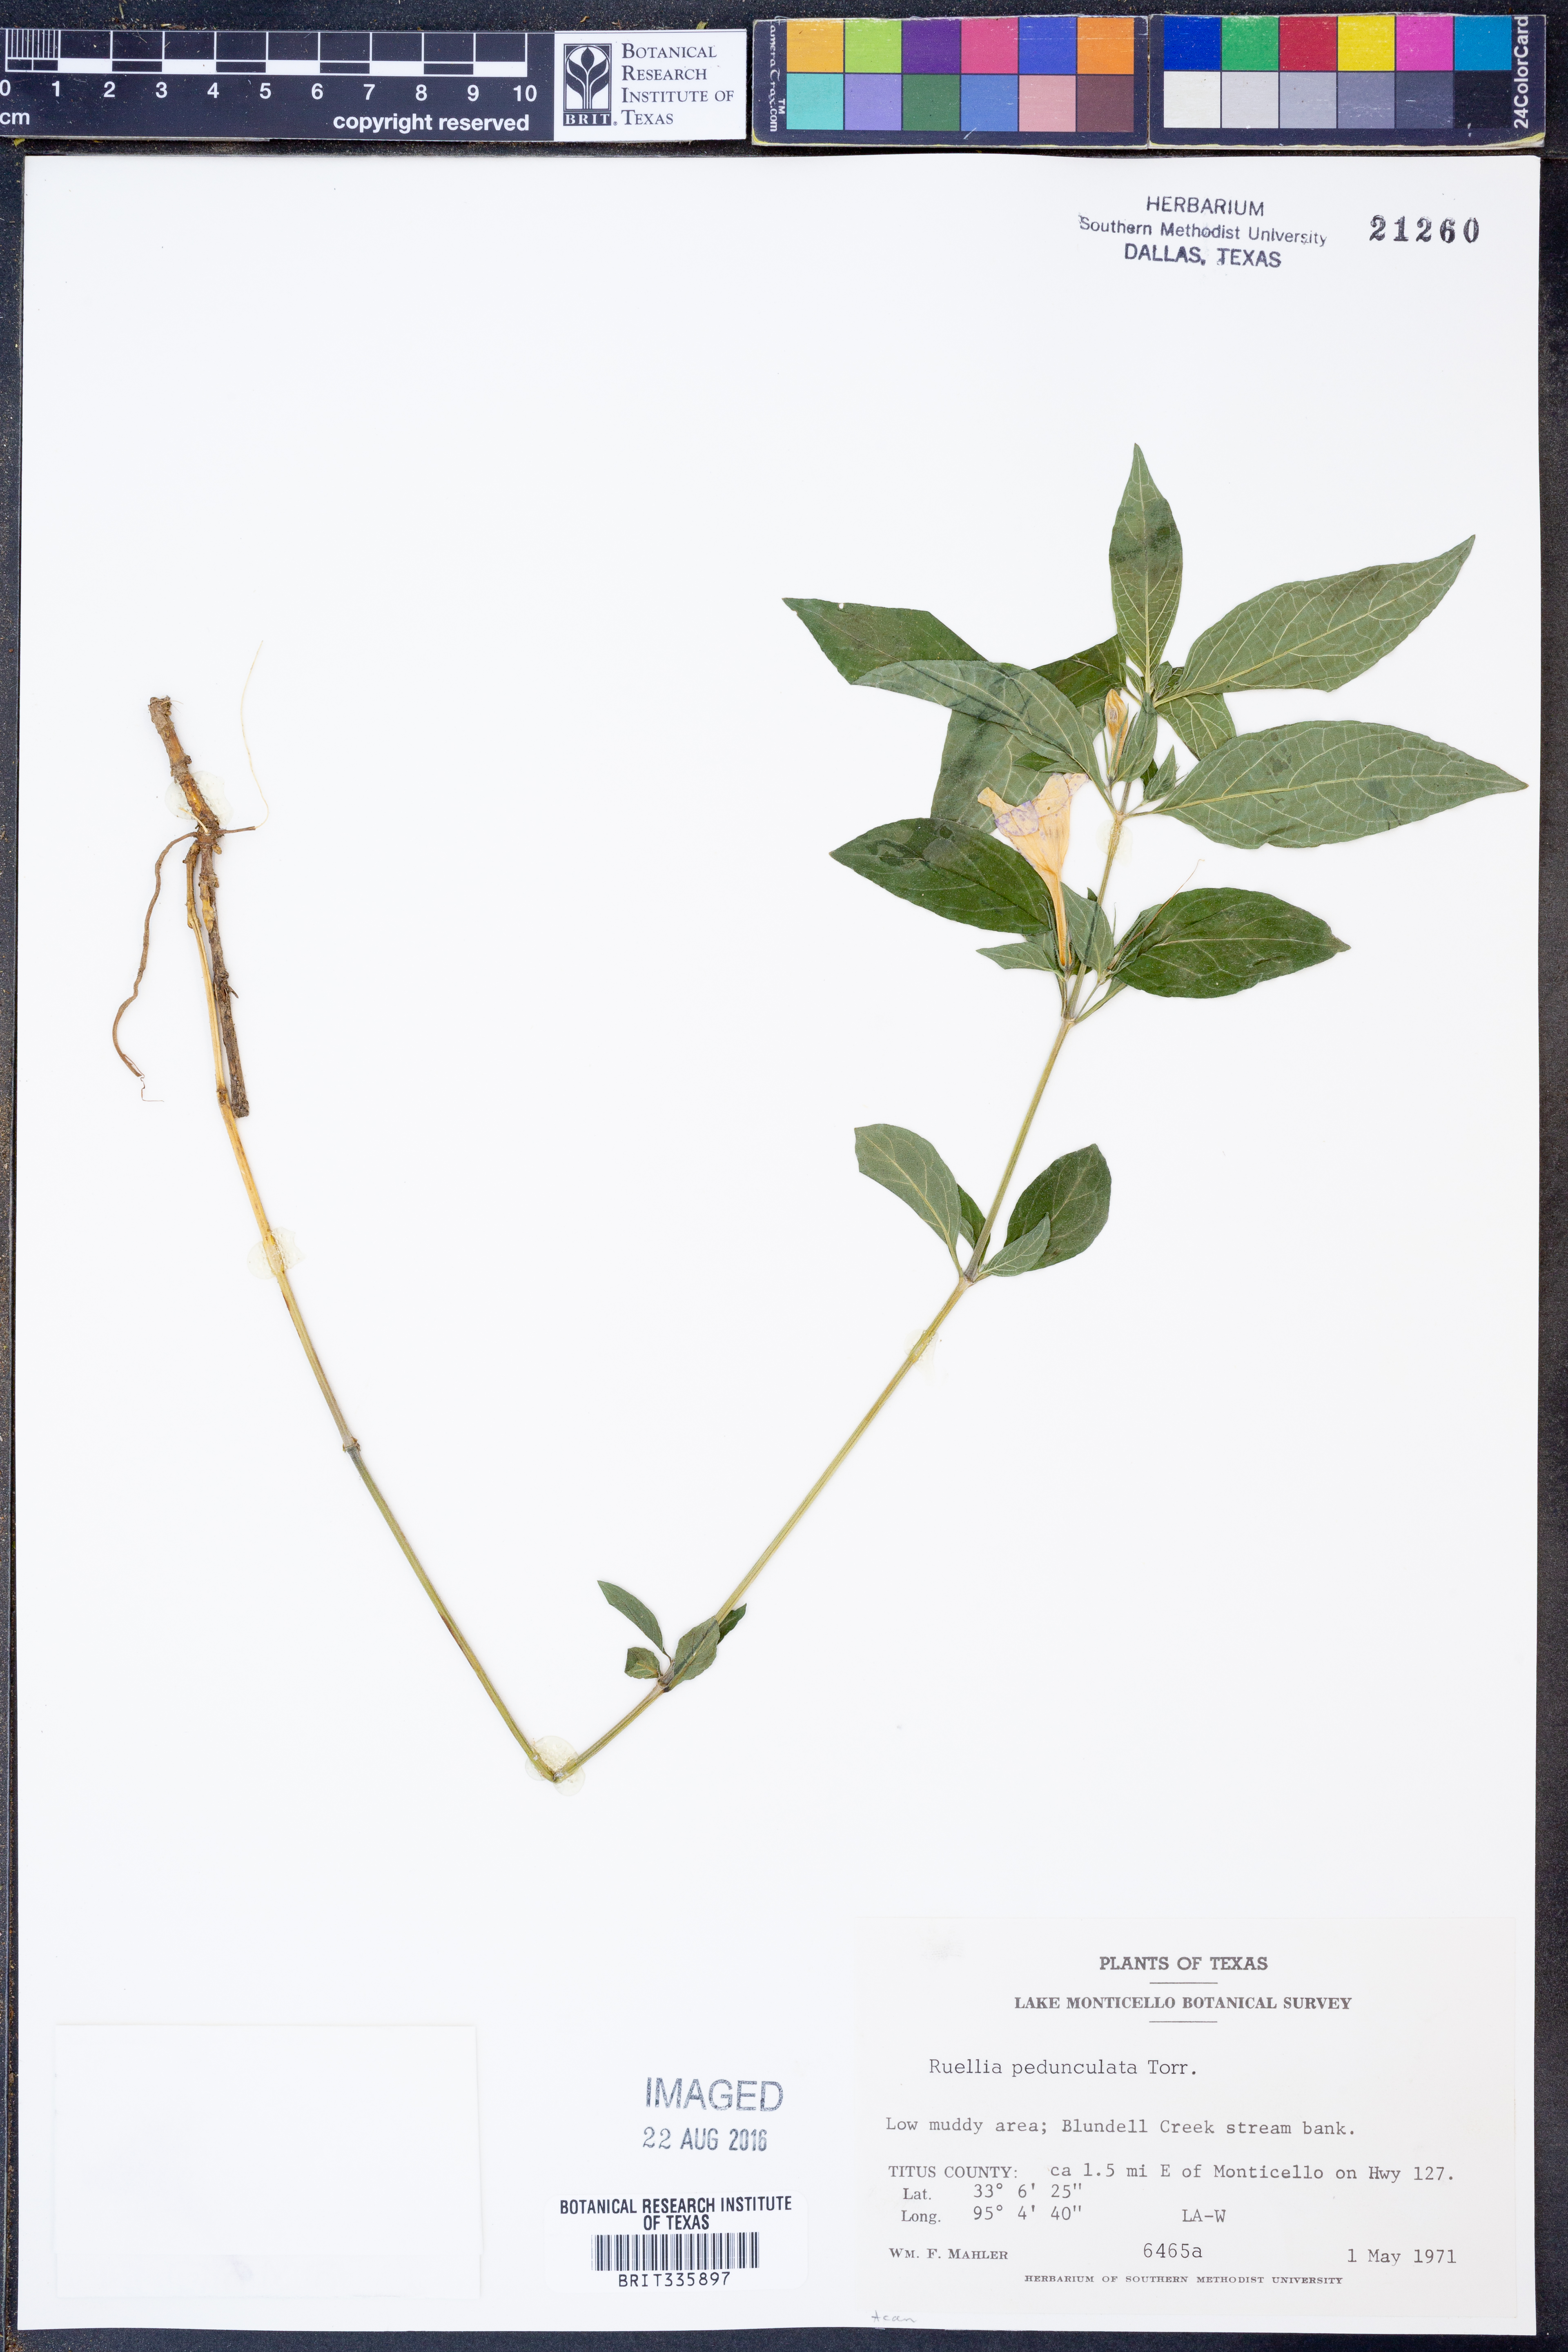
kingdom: Plantae
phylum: Tracheophyta
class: Magnoliopsida
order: Lamiales
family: Acanthaceae
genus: Ruellia
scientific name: Ruellia pedunculata
